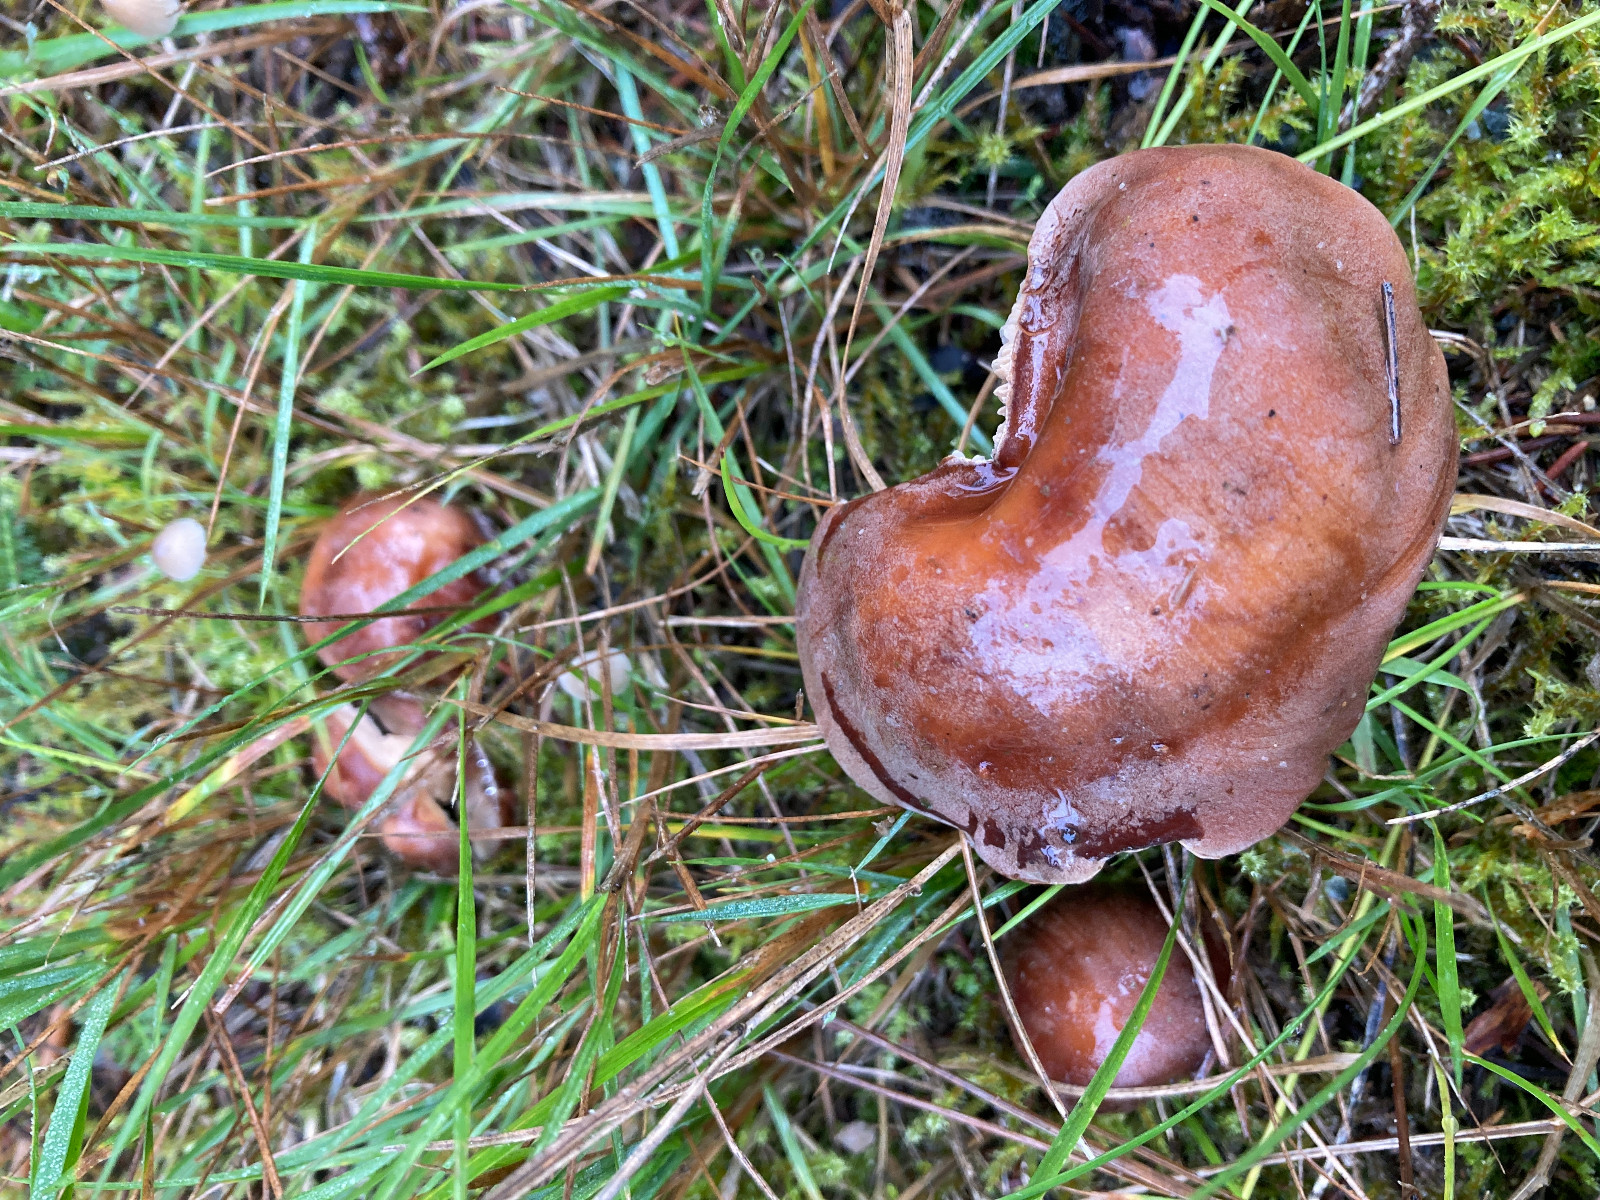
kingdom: Fungi
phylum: Basidiomycota
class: Agaricomycetes
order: Agaricales
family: Hymenogastraceae
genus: Hebeloma
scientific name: Hebeloma theobrominum
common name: rødbrun tåreblad
